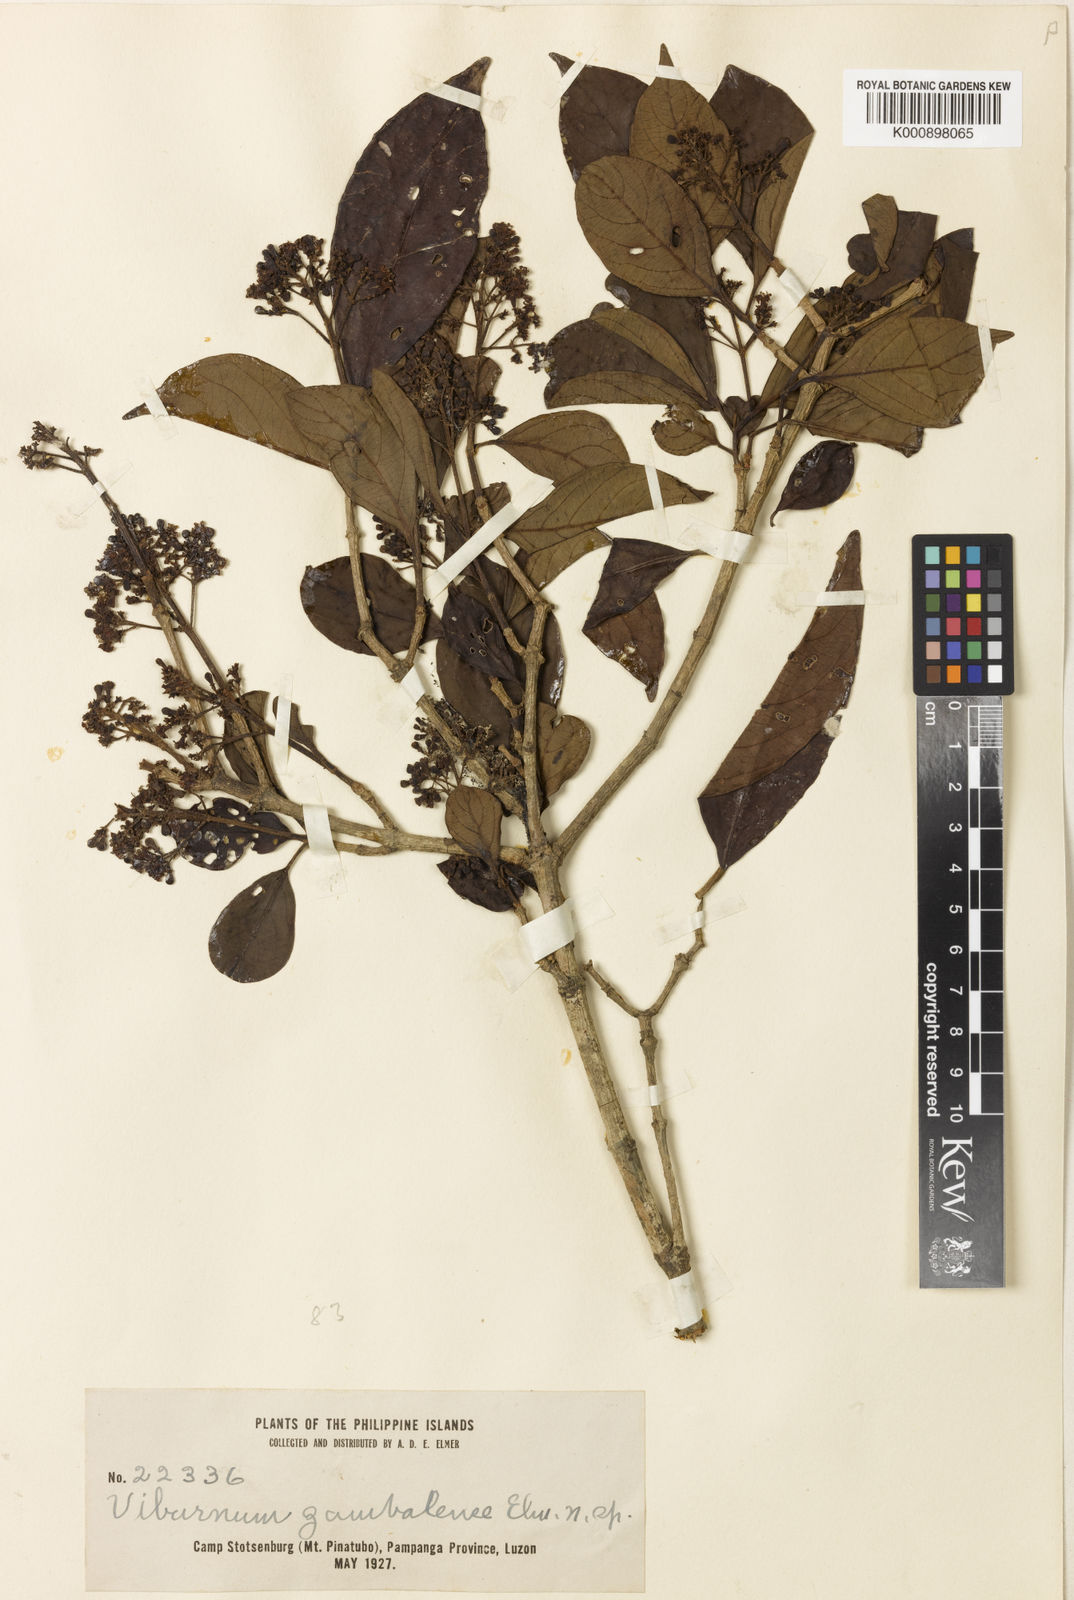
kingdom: Plantae
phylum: Tracheophyta
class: Magnoliopsida
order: Dipsacales
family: Viburnaceae
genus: Viburnum
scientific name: Viburnum odoratissimum
